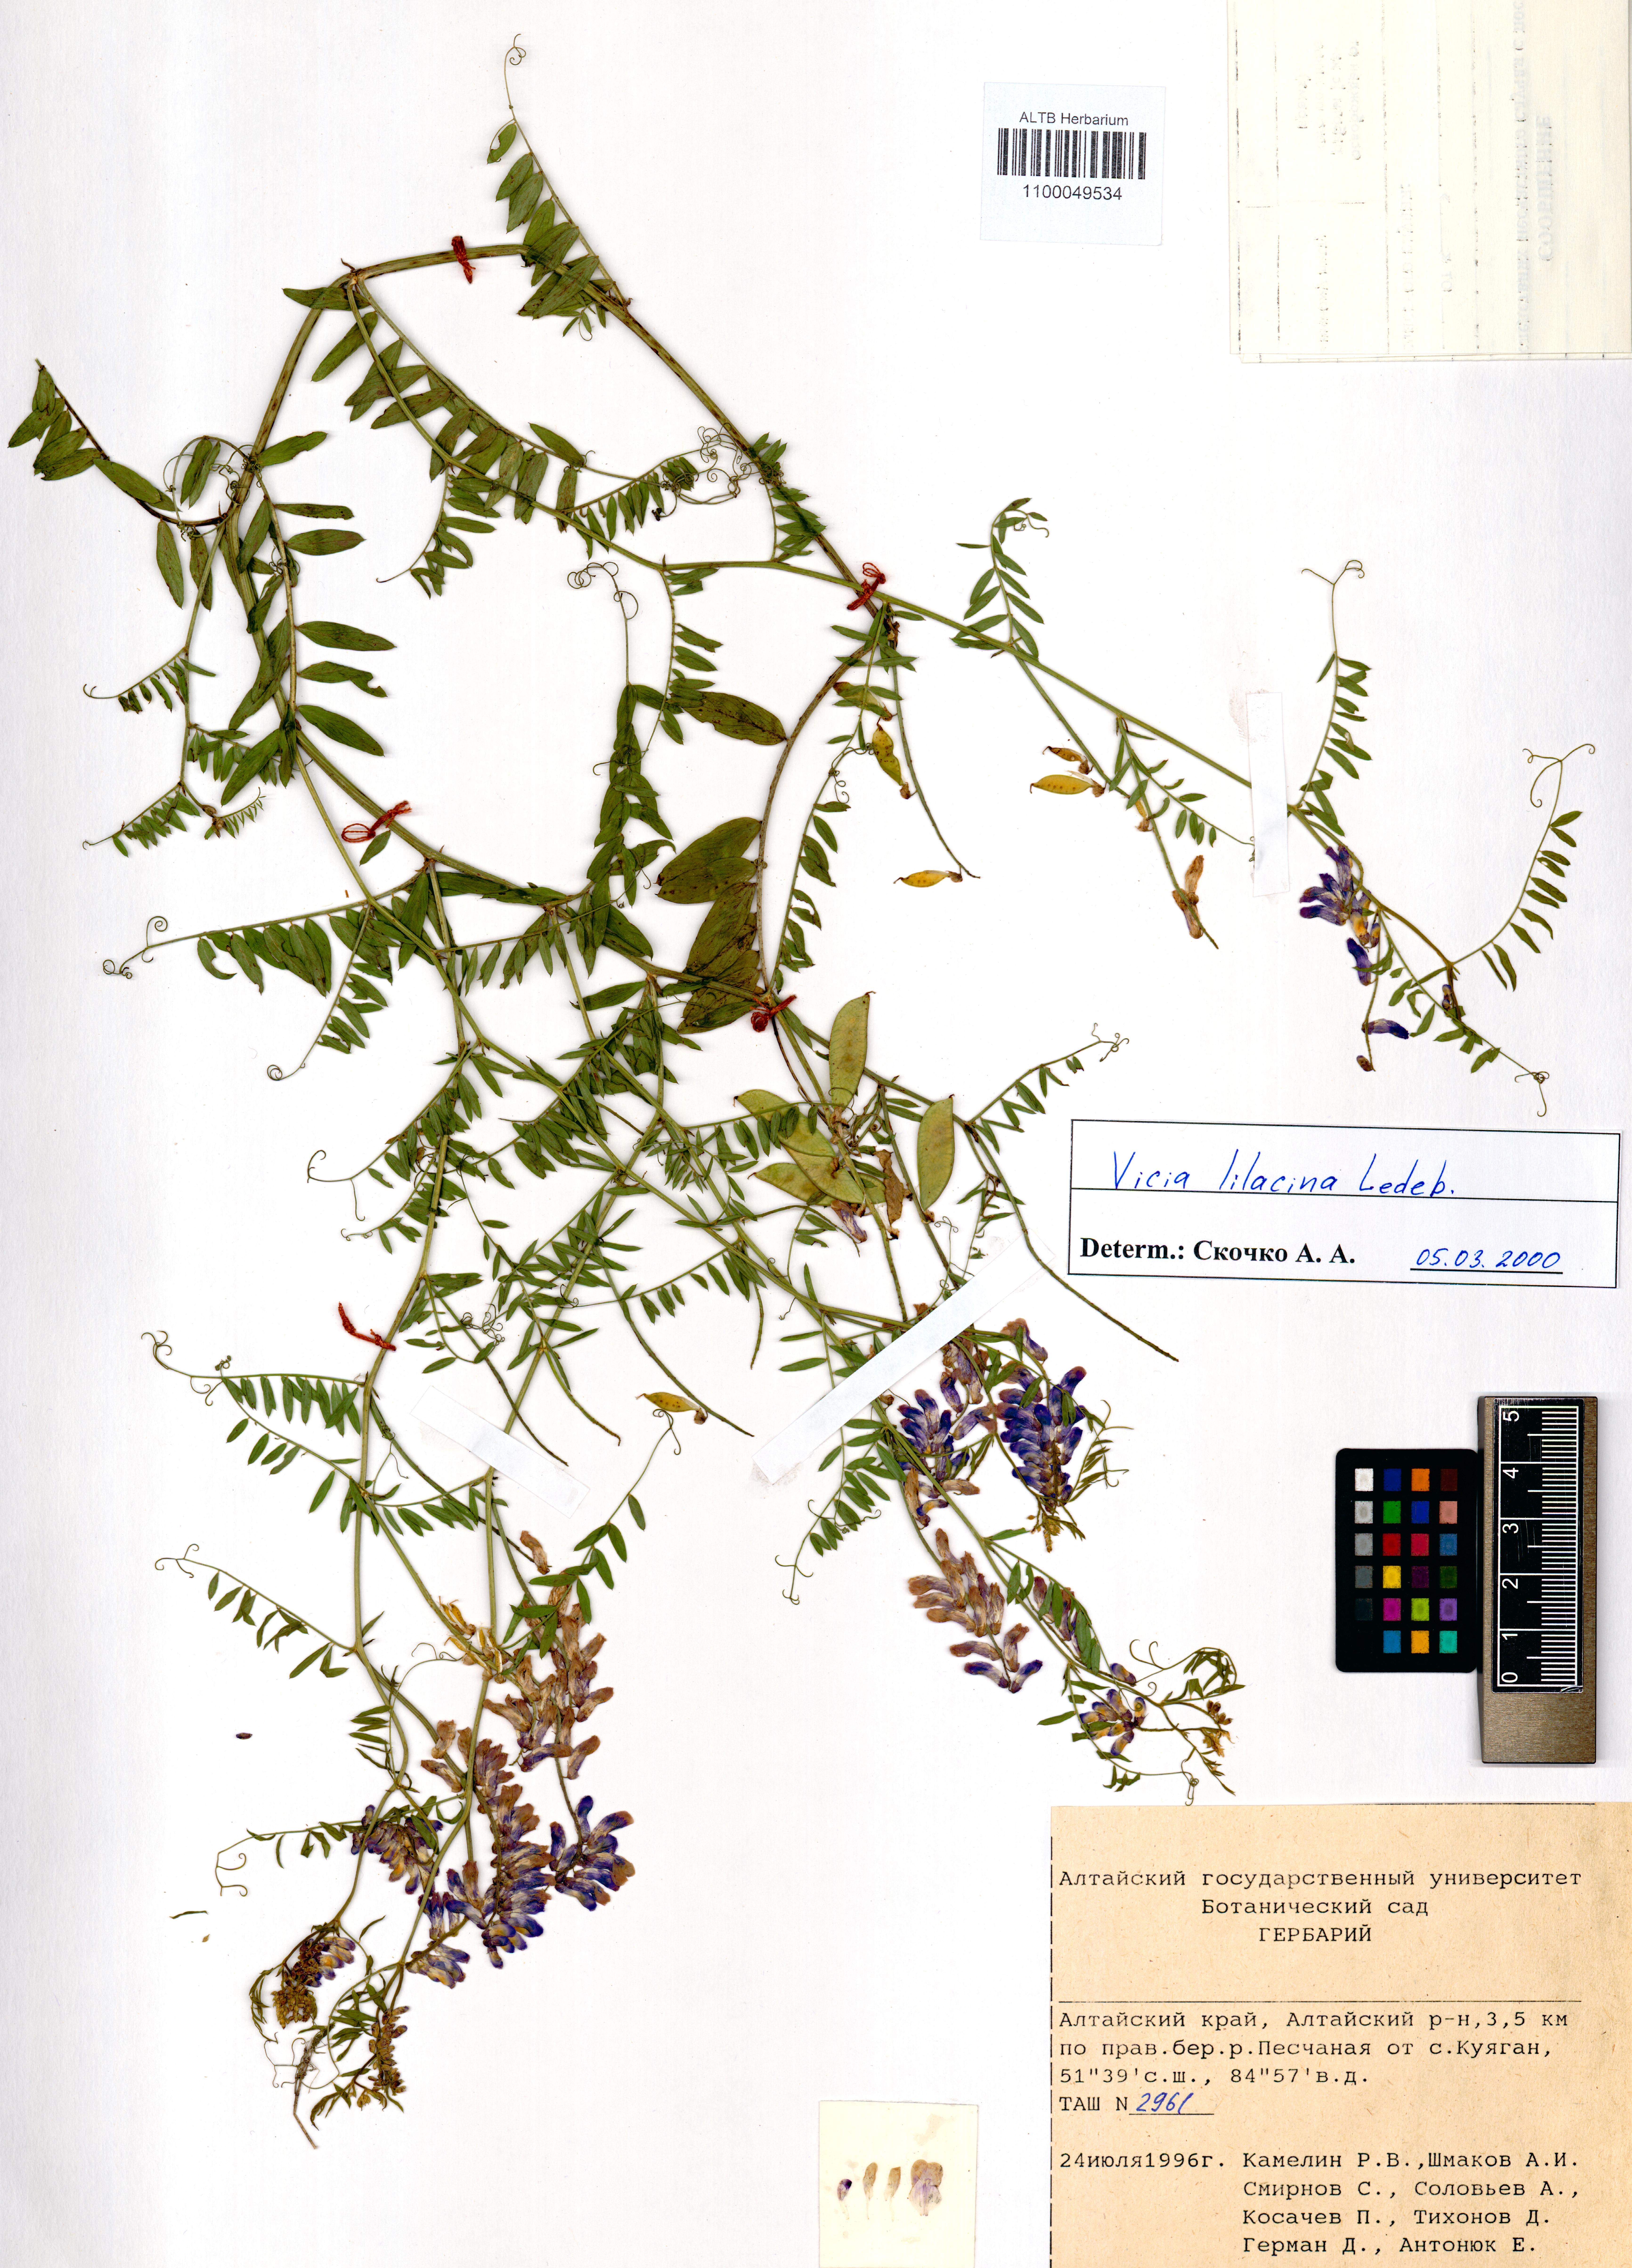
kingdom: Plantae
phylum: Tracheophyta
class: Magnoliopsida
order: Fabales
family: Fabaceae
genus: Vicia
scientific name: Vicia lilacina
